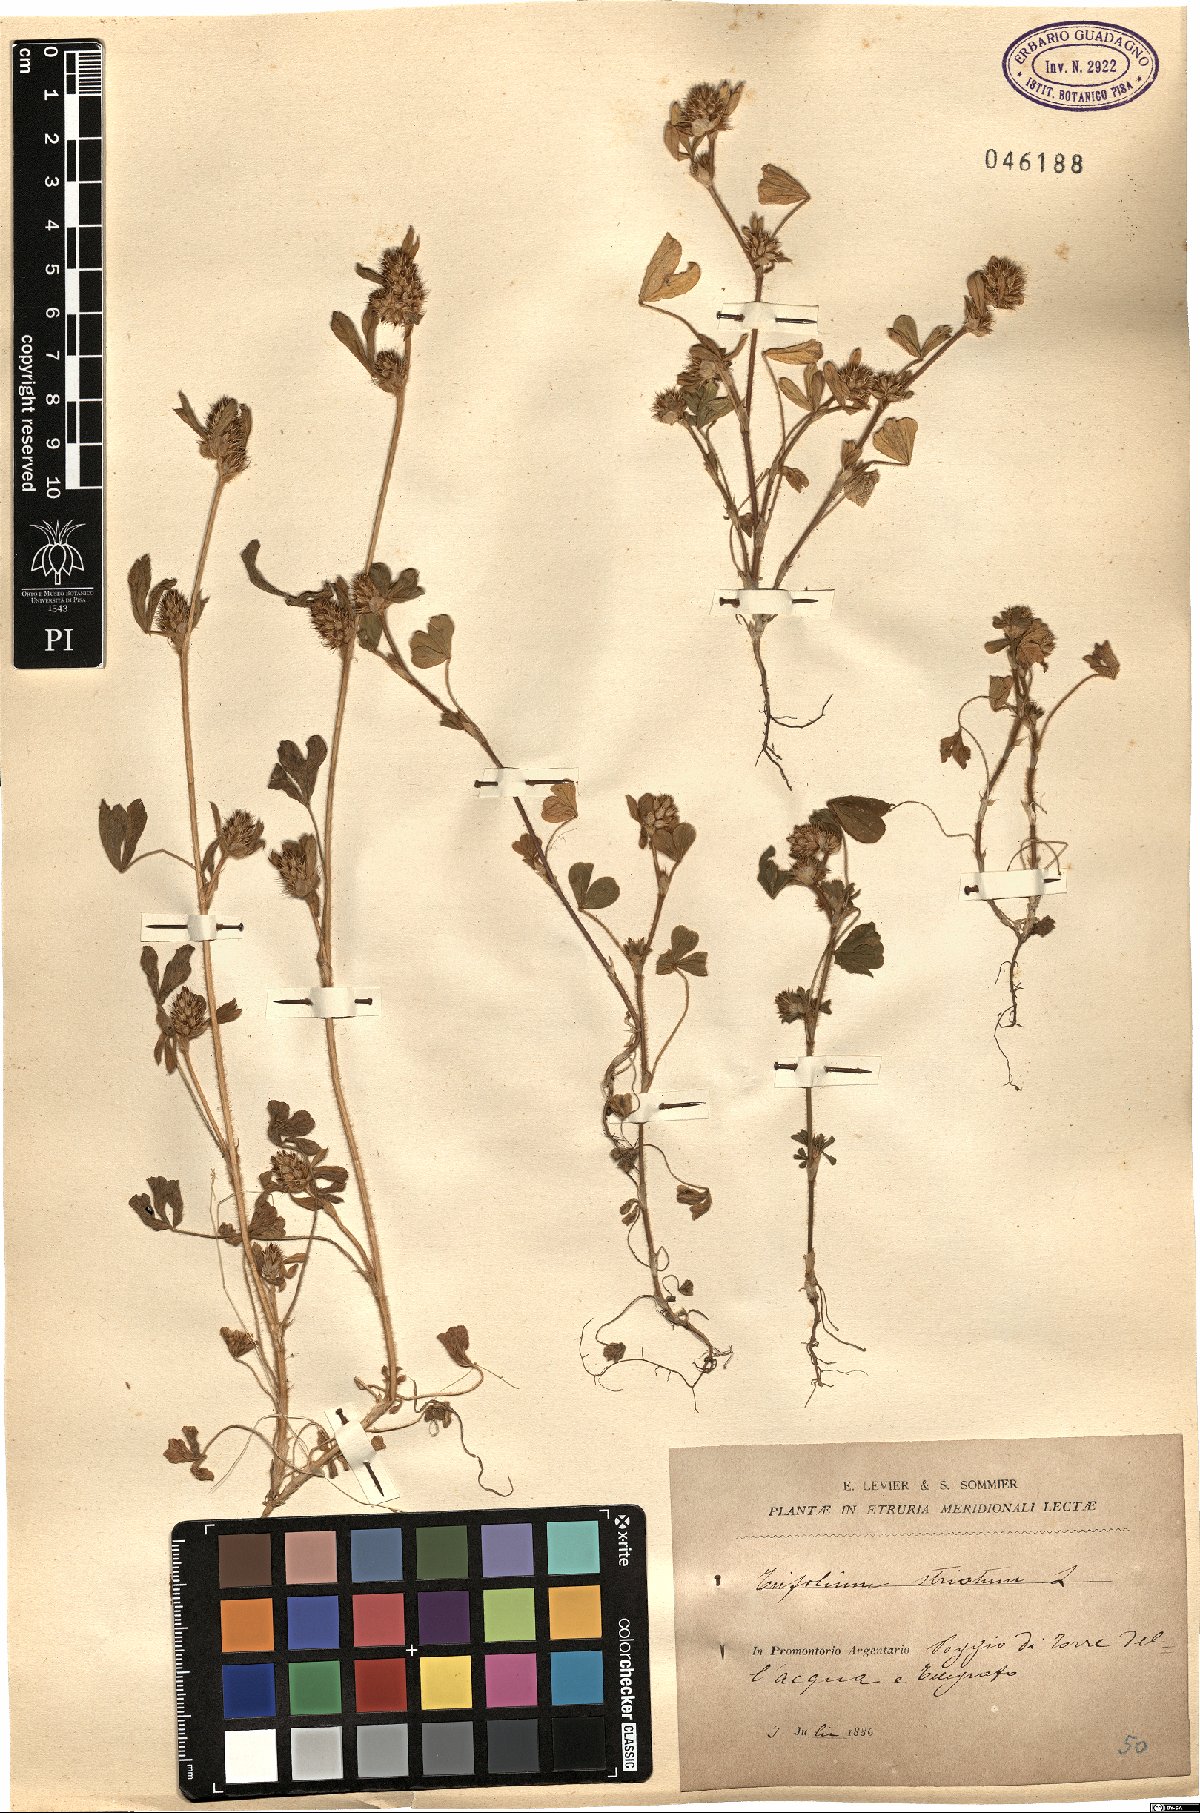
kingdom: Plantae
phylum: Tracheophyta
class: Magnoliopsida
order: Fabales
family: Fabaceae
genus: Trifolium
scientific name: Trifolium striatum
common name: Knotted clover
